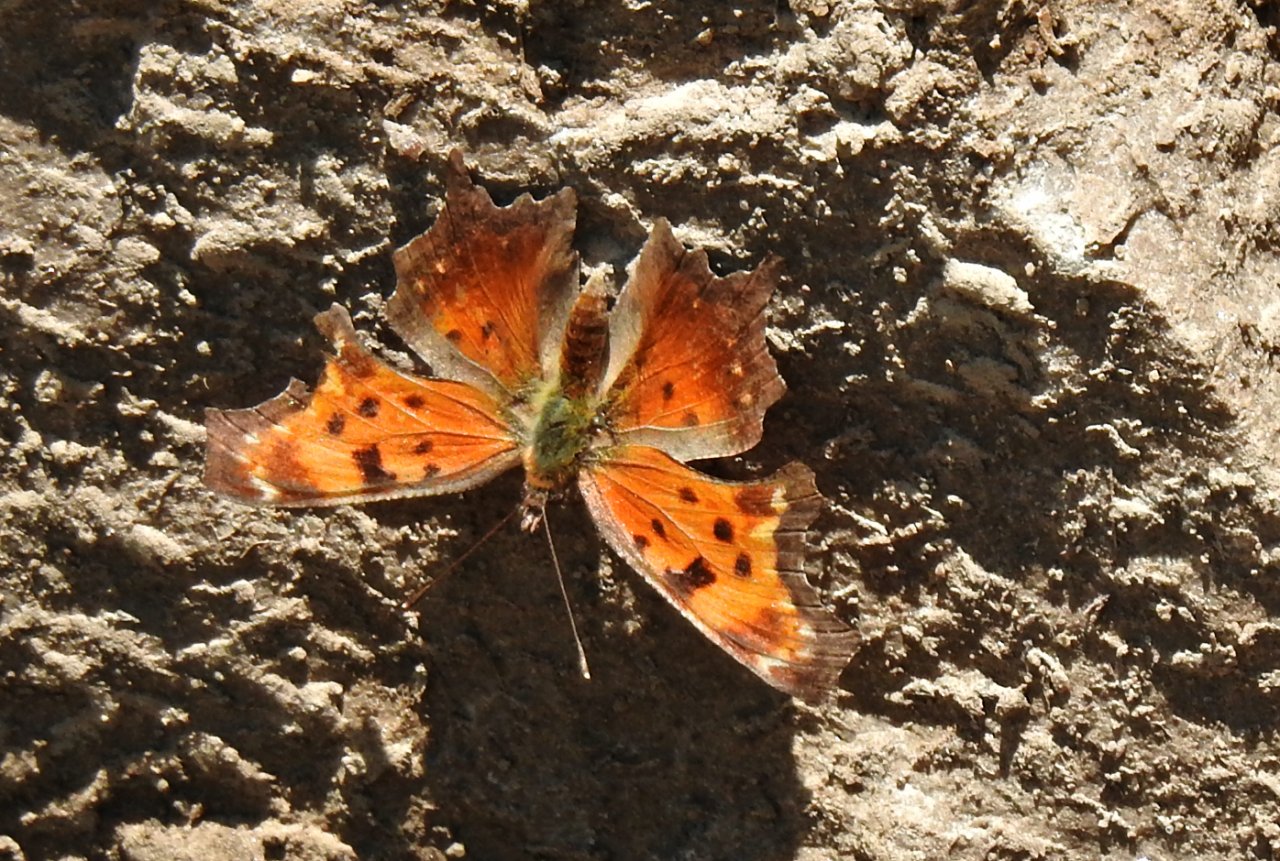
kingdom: Animalia
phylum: Arthropoda
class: Insecta
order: Lepidoptera
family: Nymphalidae
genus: Polygonia
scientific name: Polygonia progne
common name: Gray Comma
